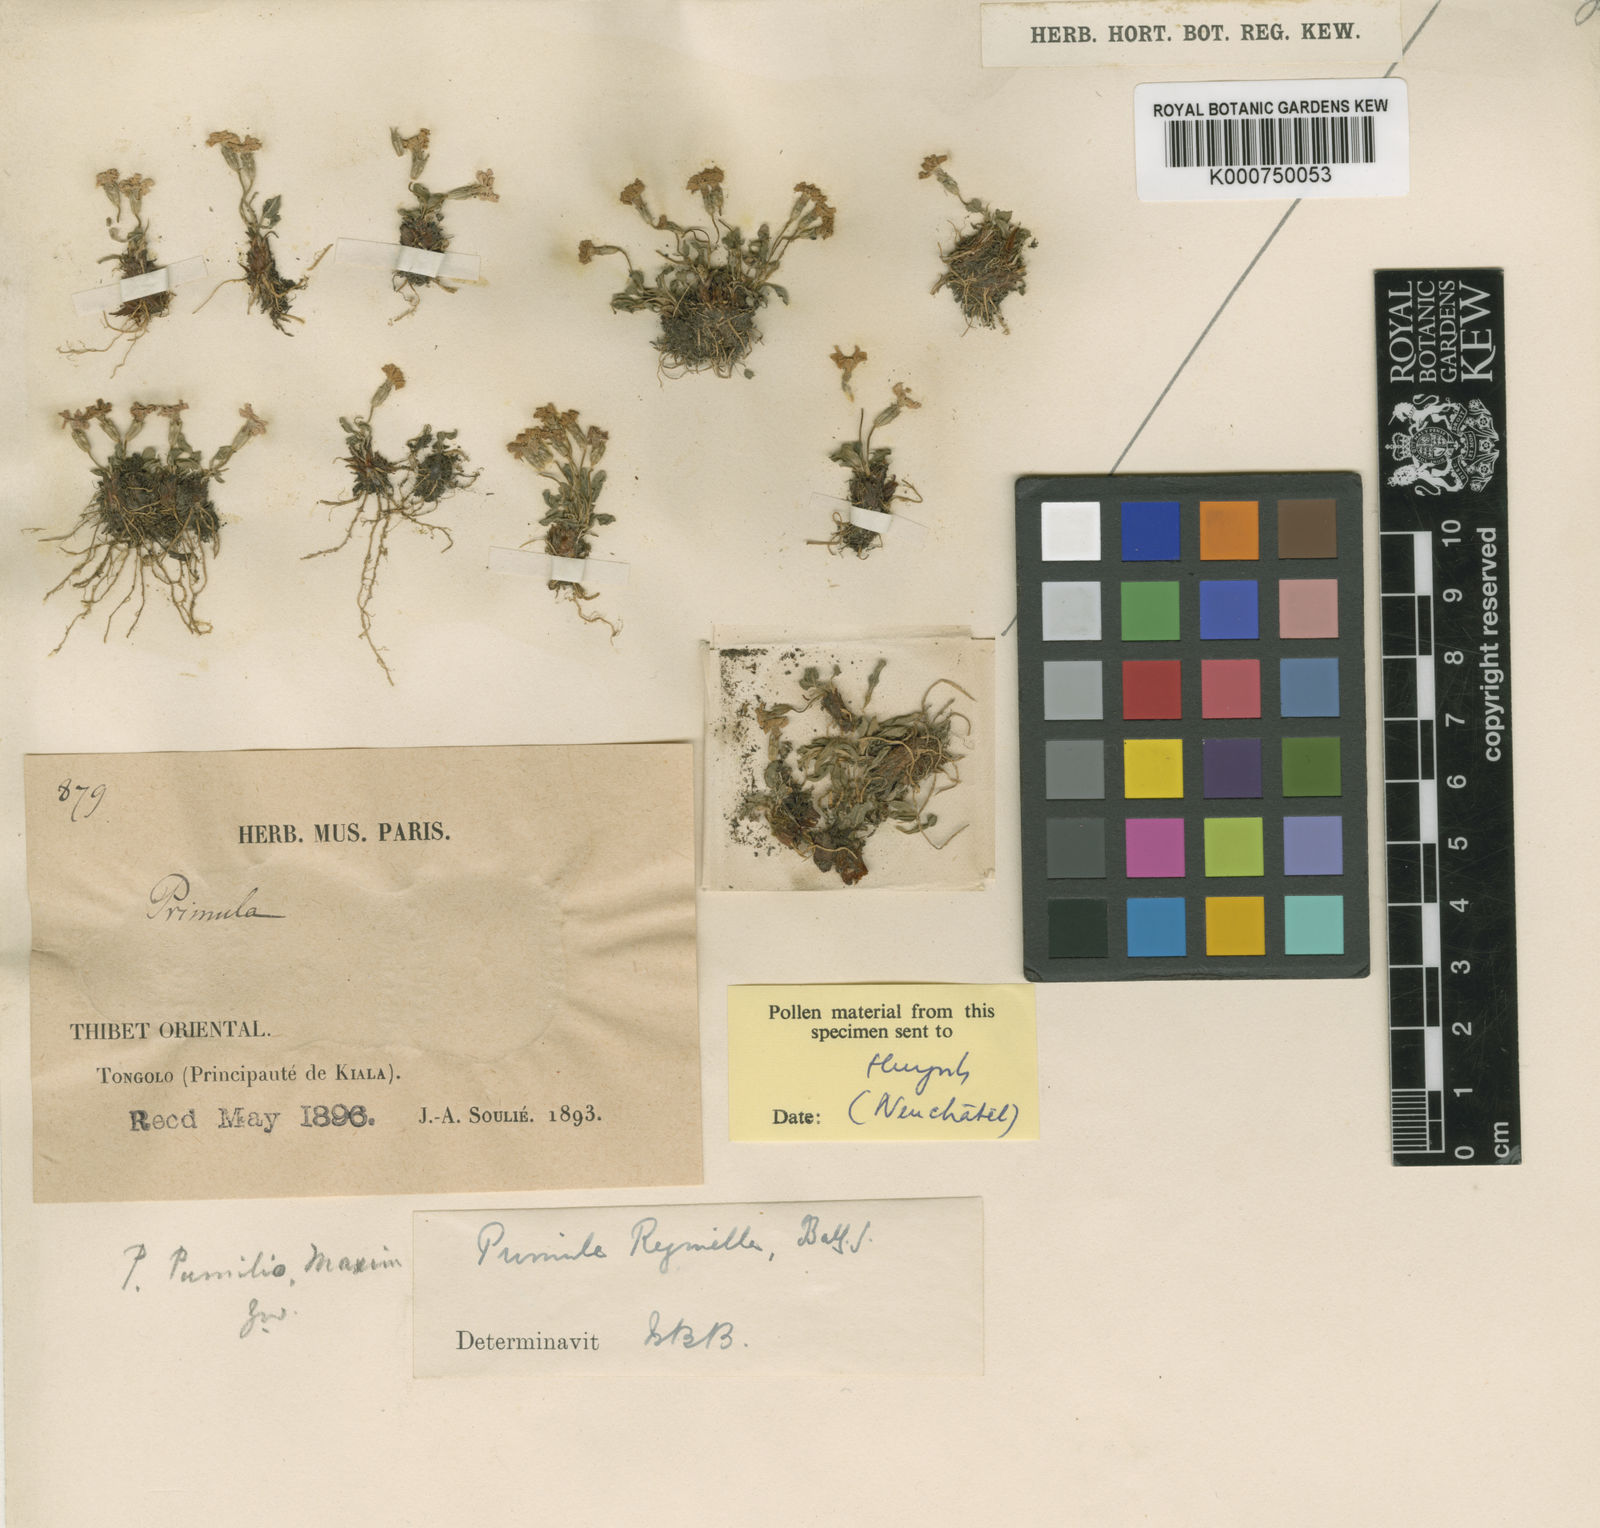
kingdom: Plantae
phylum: Tracheophyta
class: Magnoliopsida
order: Ericales
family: Primulaceae
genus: Primula
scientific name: Primula fasciculata
